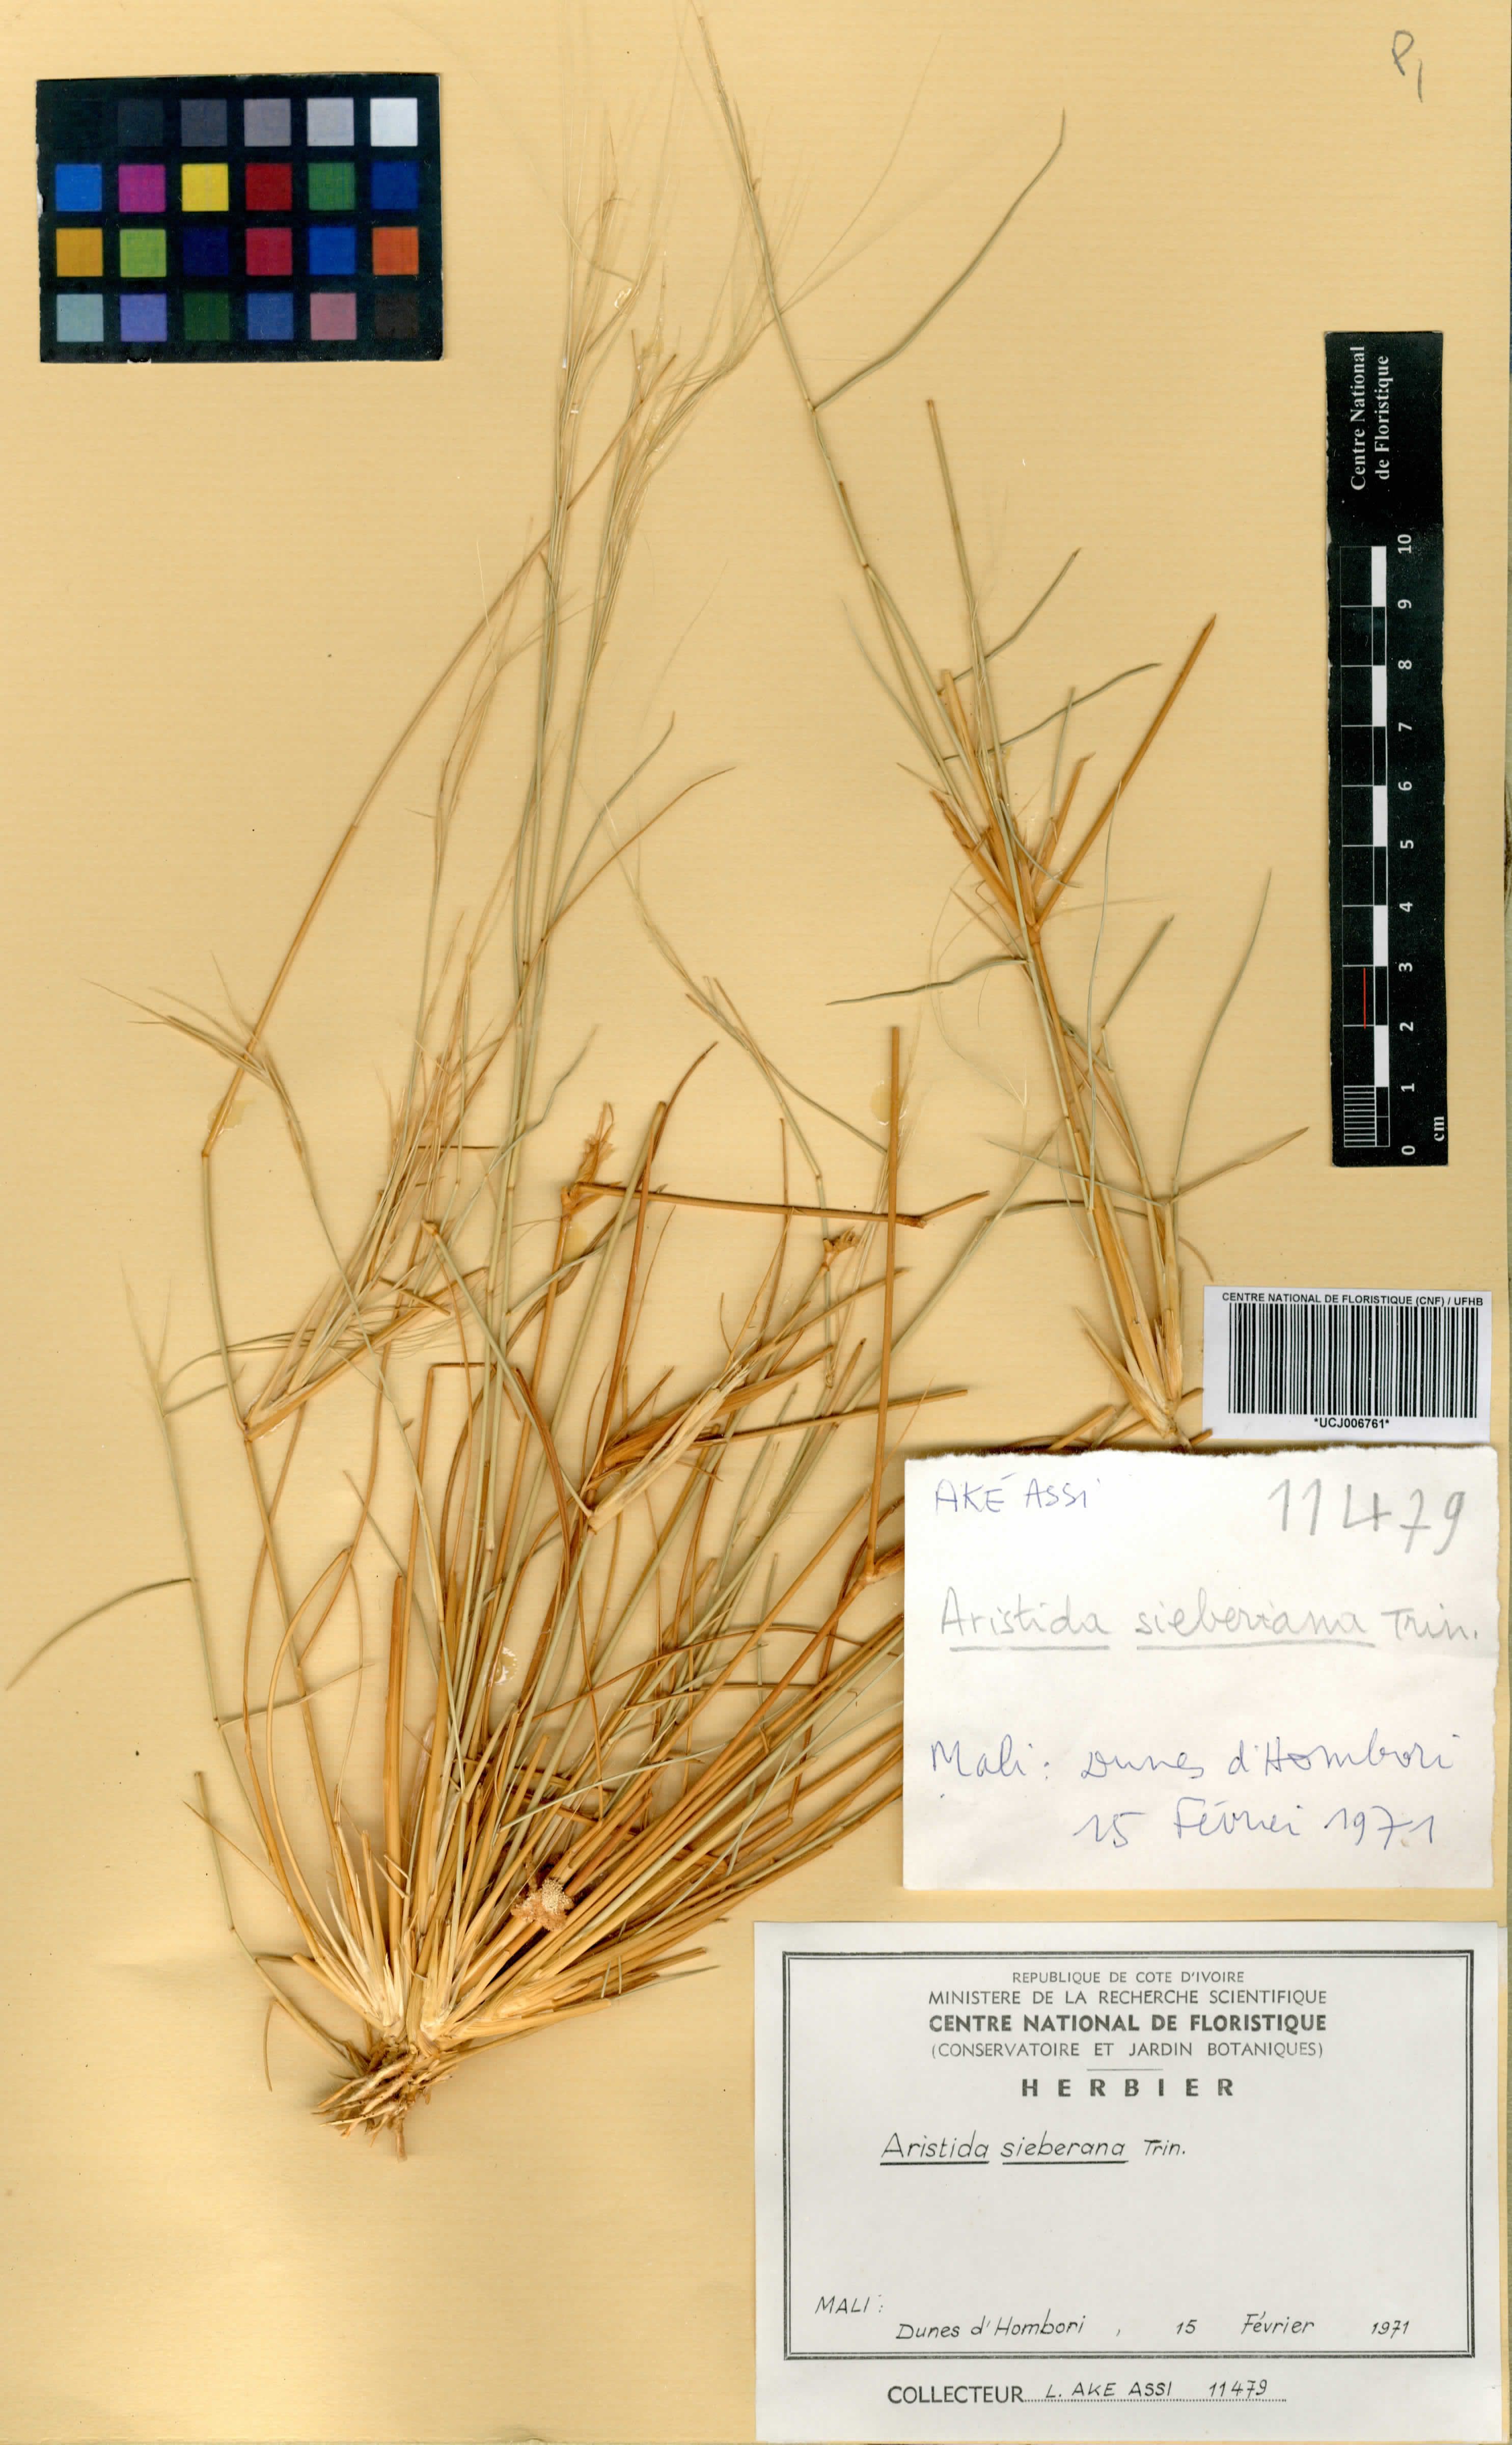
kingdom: Plantae
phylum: Tracheophyta
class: Liliopsida
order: Poales
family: Poaceae
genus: Aristida
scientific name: Aristida sieberiana
